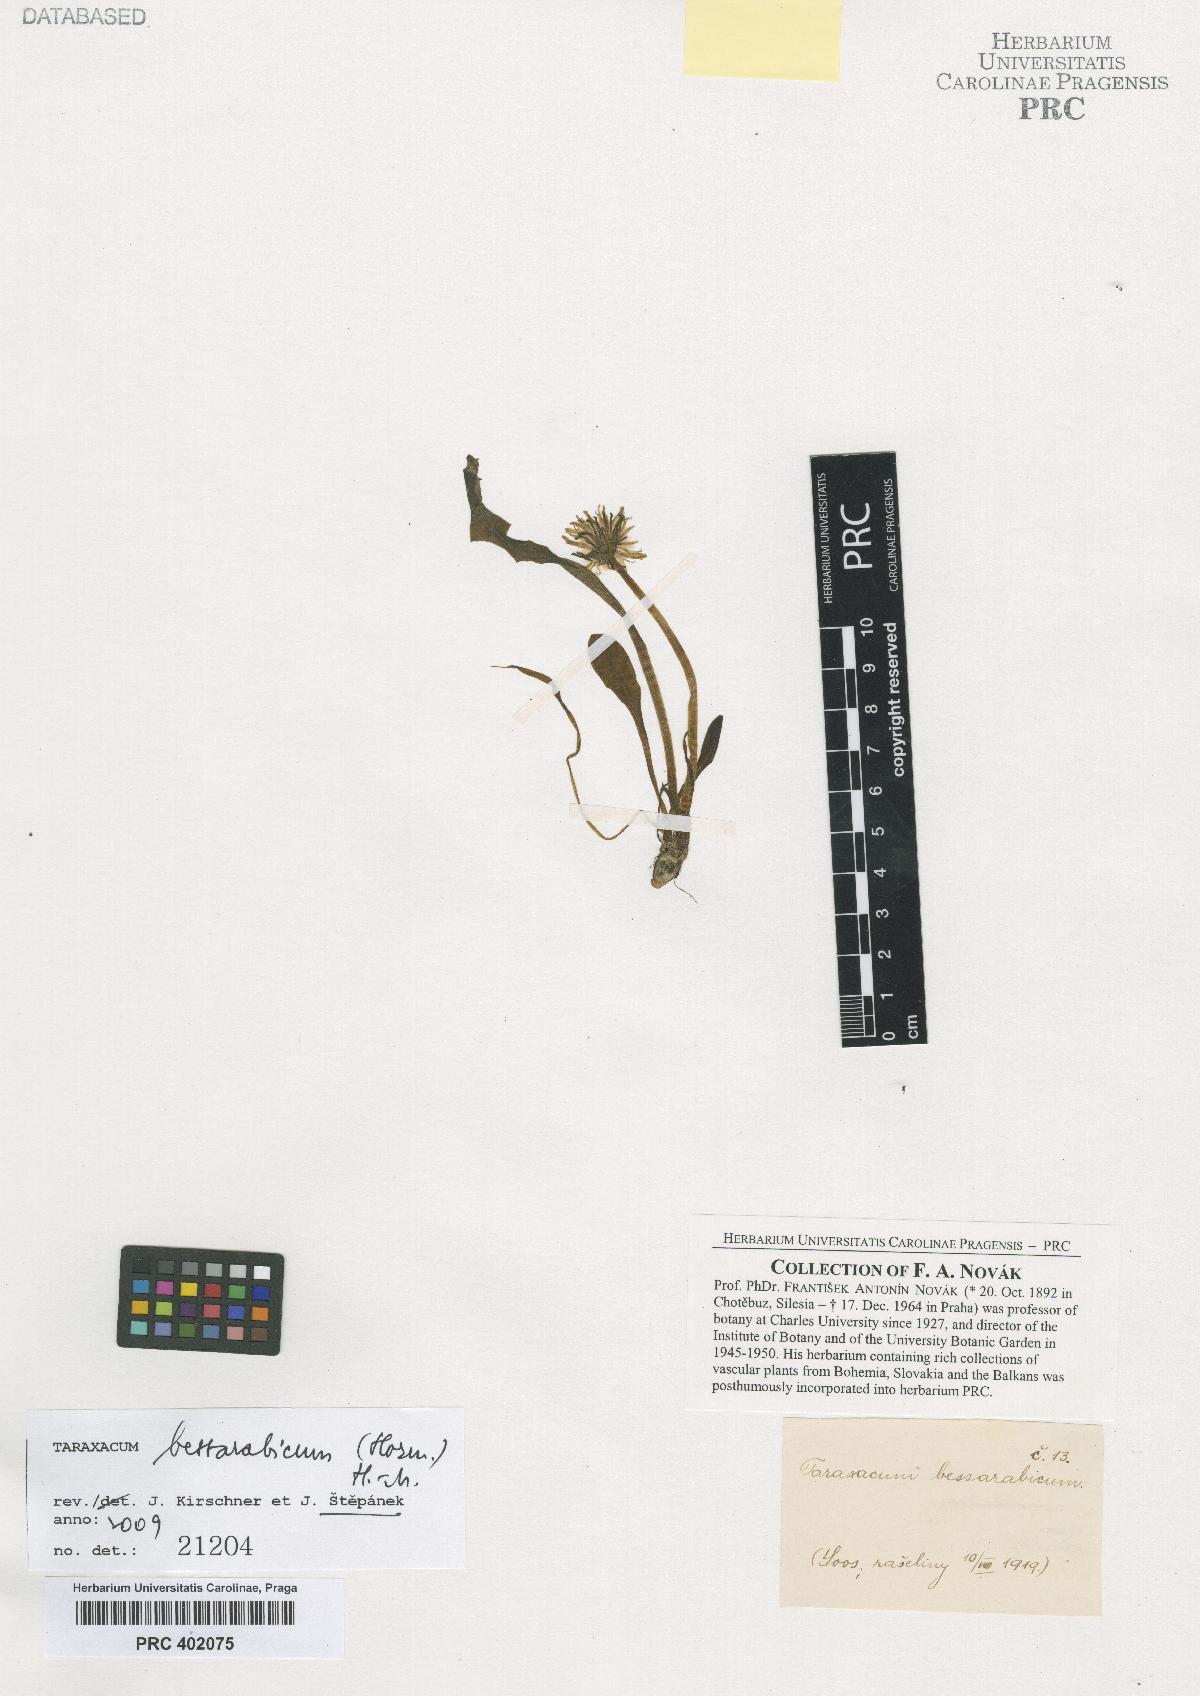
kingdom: Plantae
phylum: Tracheophyta
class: Magnoliopsida
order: Asterales
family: Asteraceae
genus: Taraxacum
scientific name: Taraxacum bessarabicum
